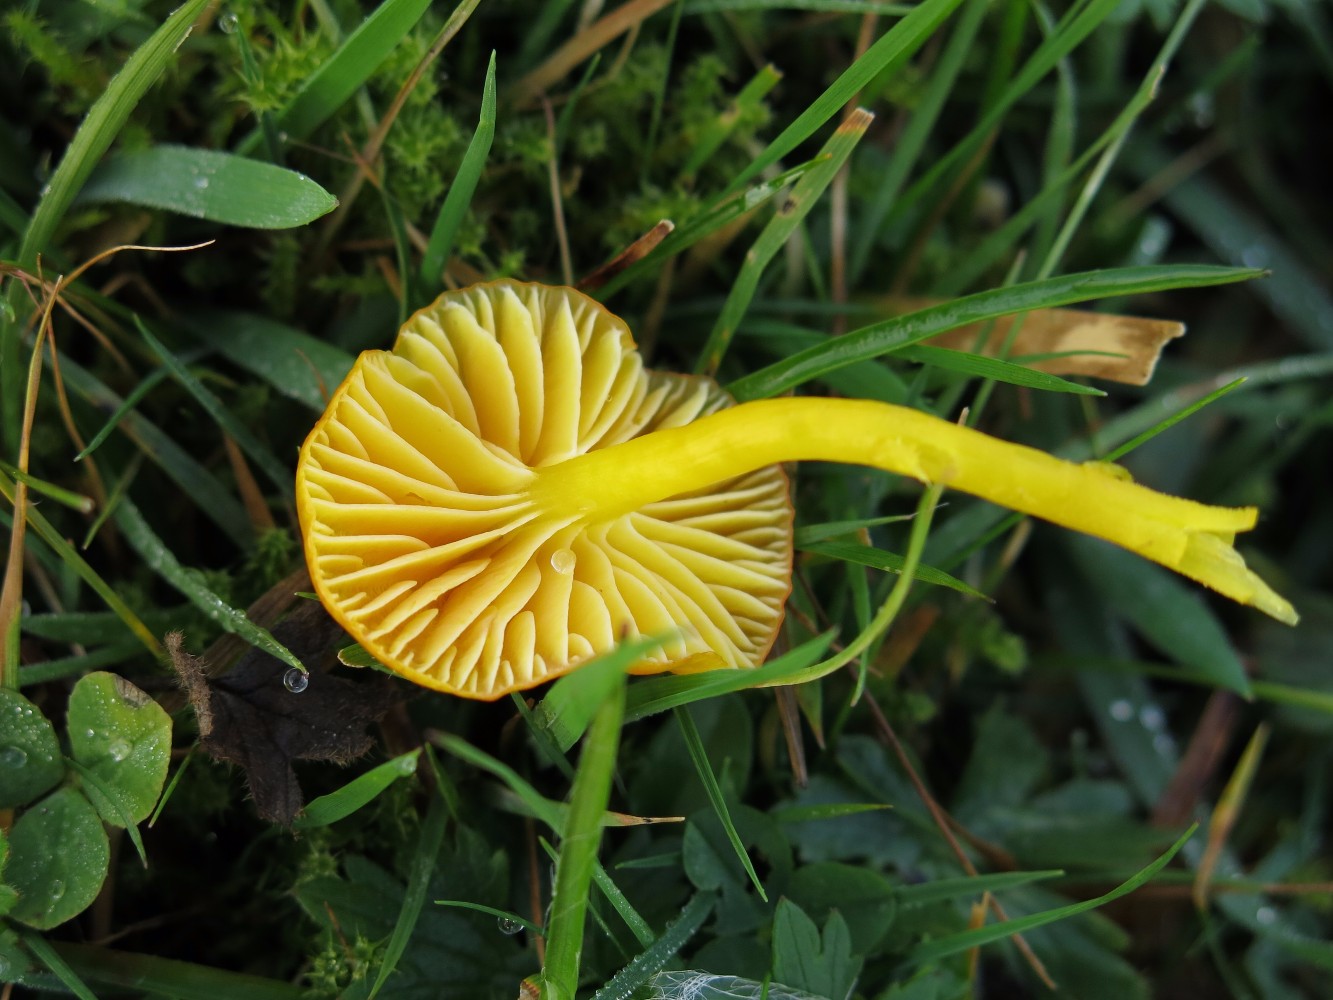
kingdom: Fungi
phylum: Basidiomycota
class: Agaricomycetes
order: Agaricales
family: Hygrophoraceae
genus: Hygrocybe
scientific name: Hygrocybe ceracea
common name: voksgul vokshat
